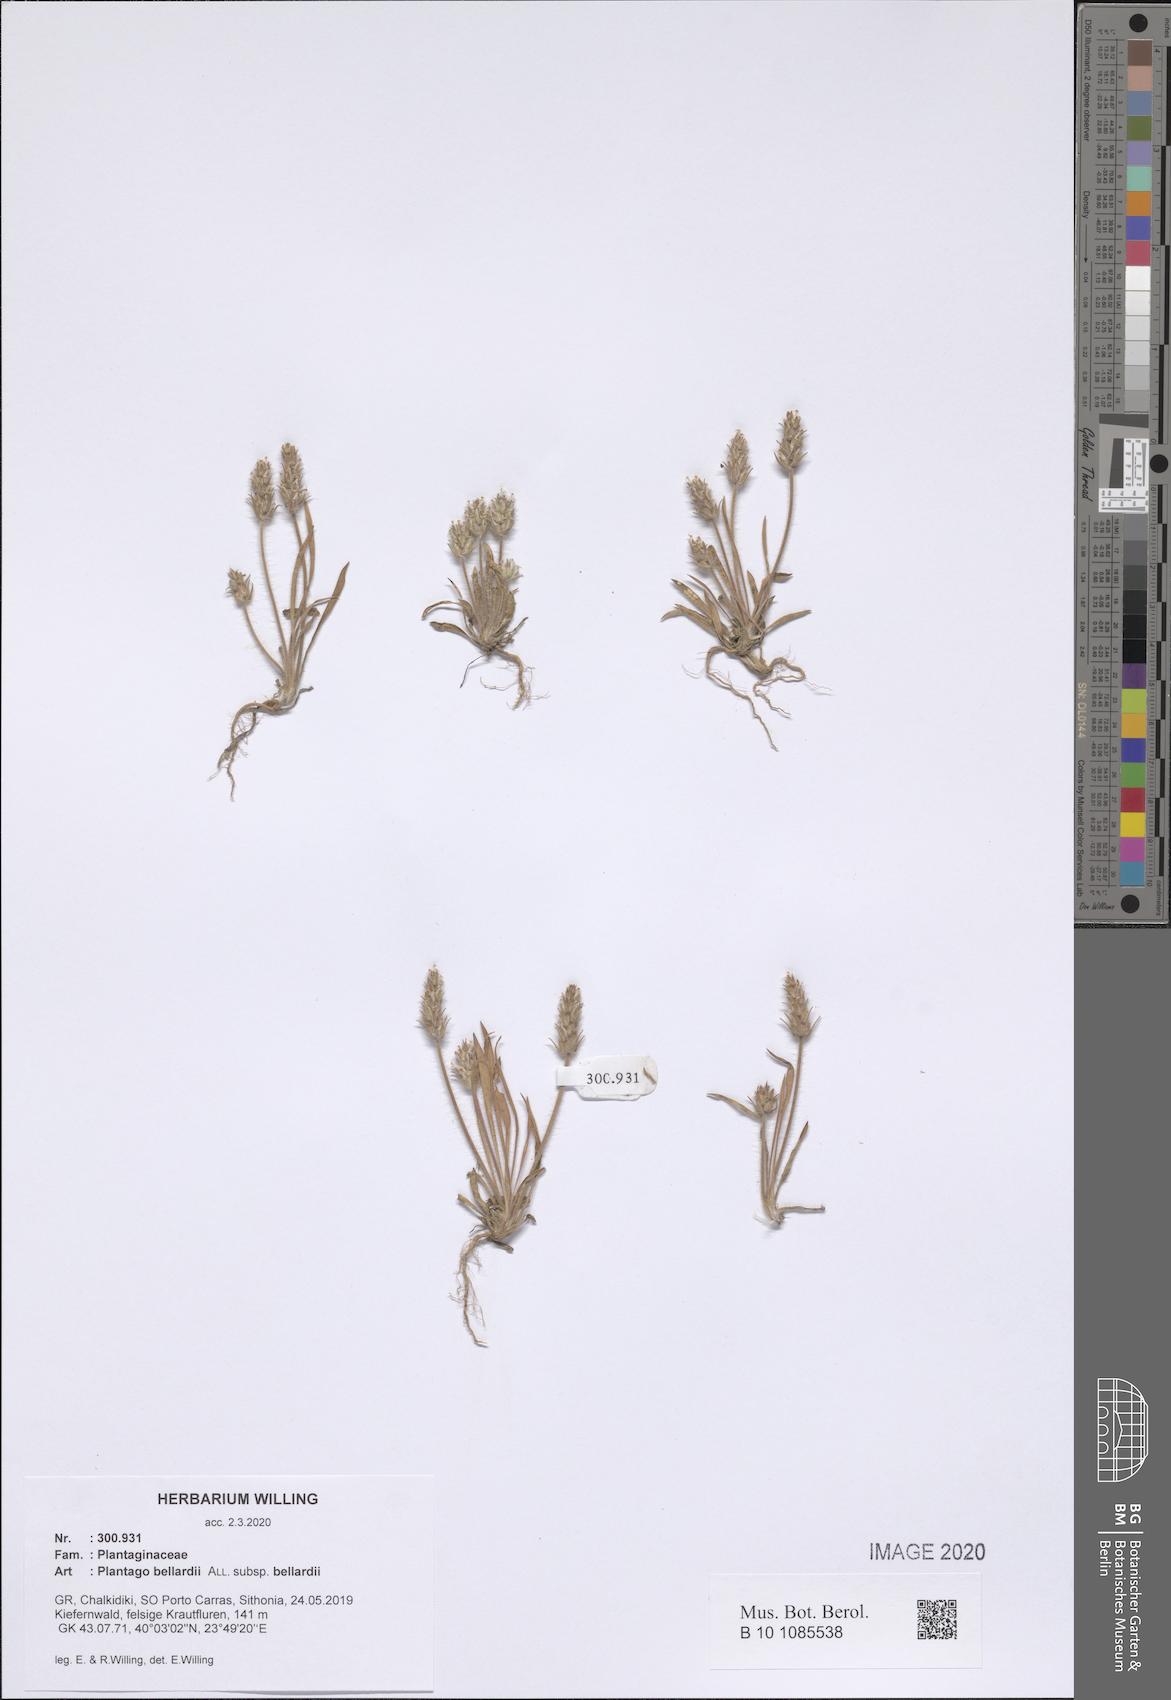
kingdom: Plantae
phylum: Tracheophyta
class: Magnoliopsida
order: Lamiales
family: Plantaginaceae
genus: Plantago
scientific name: Plantago bellardii
